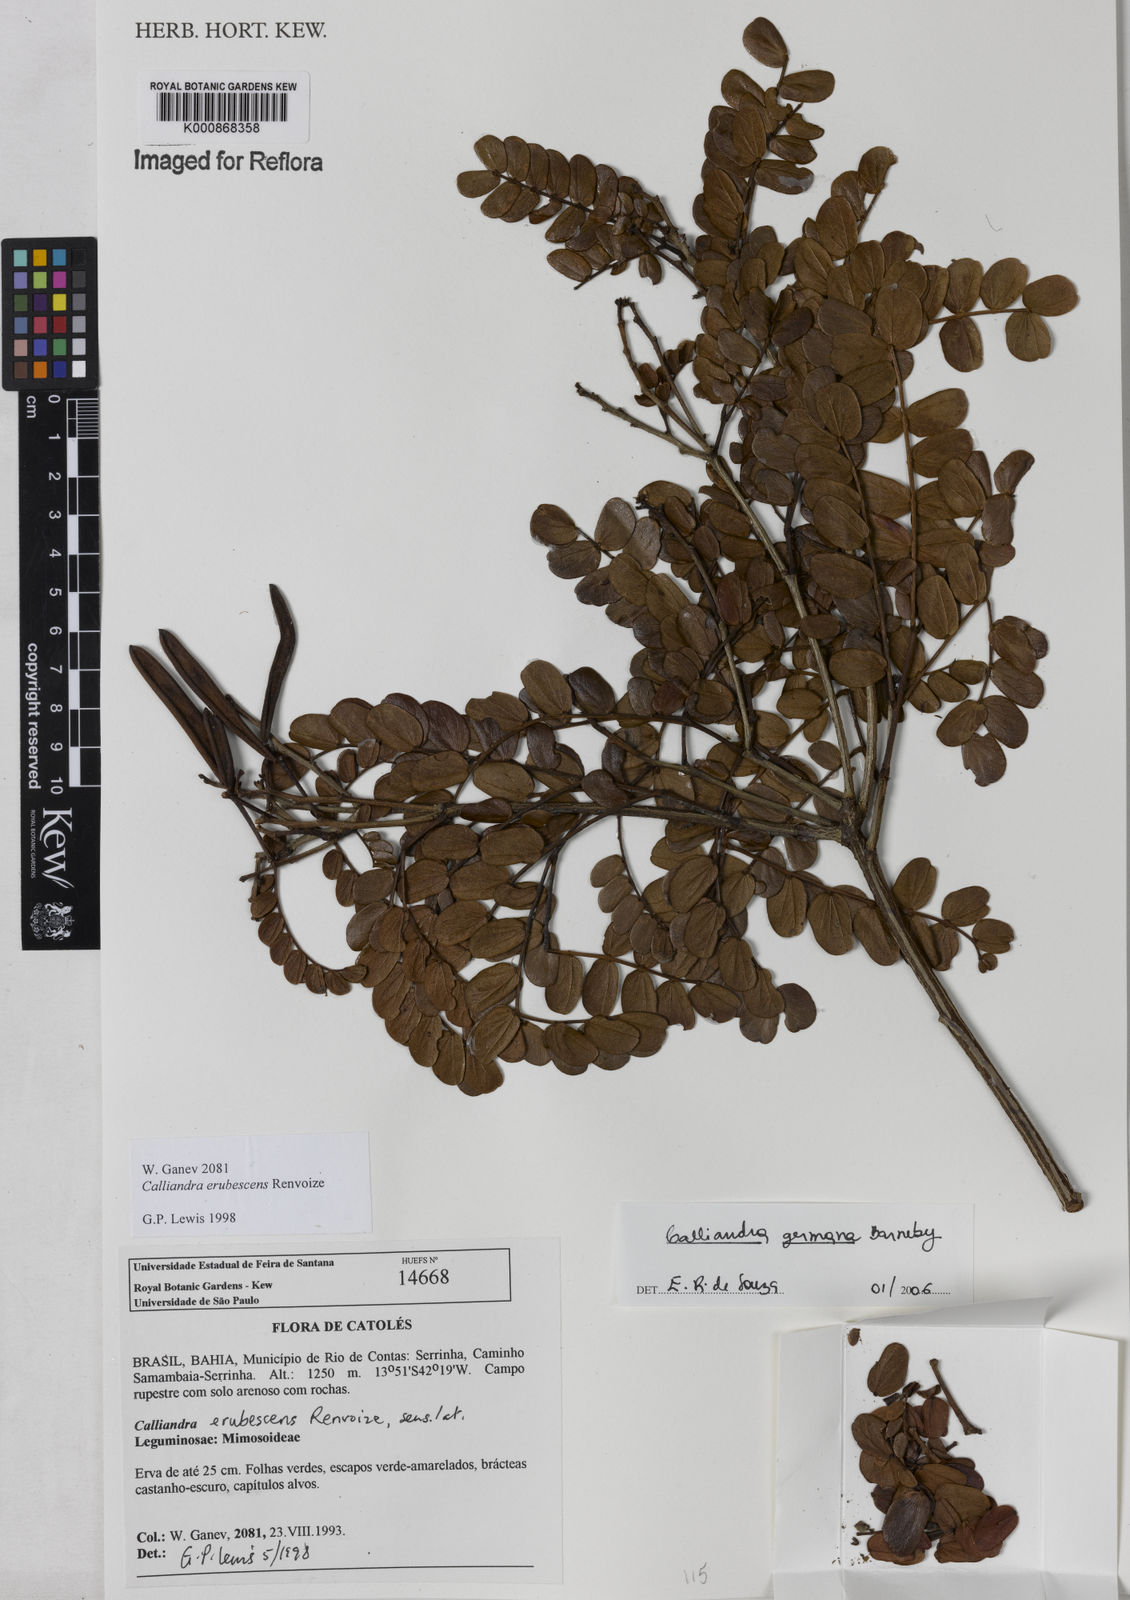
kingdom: Plantae
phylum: Tracheophyta
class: Magnoliopsida
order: Fabales
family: Fabaceae
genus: Calliandra
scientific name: Calliandra germana
